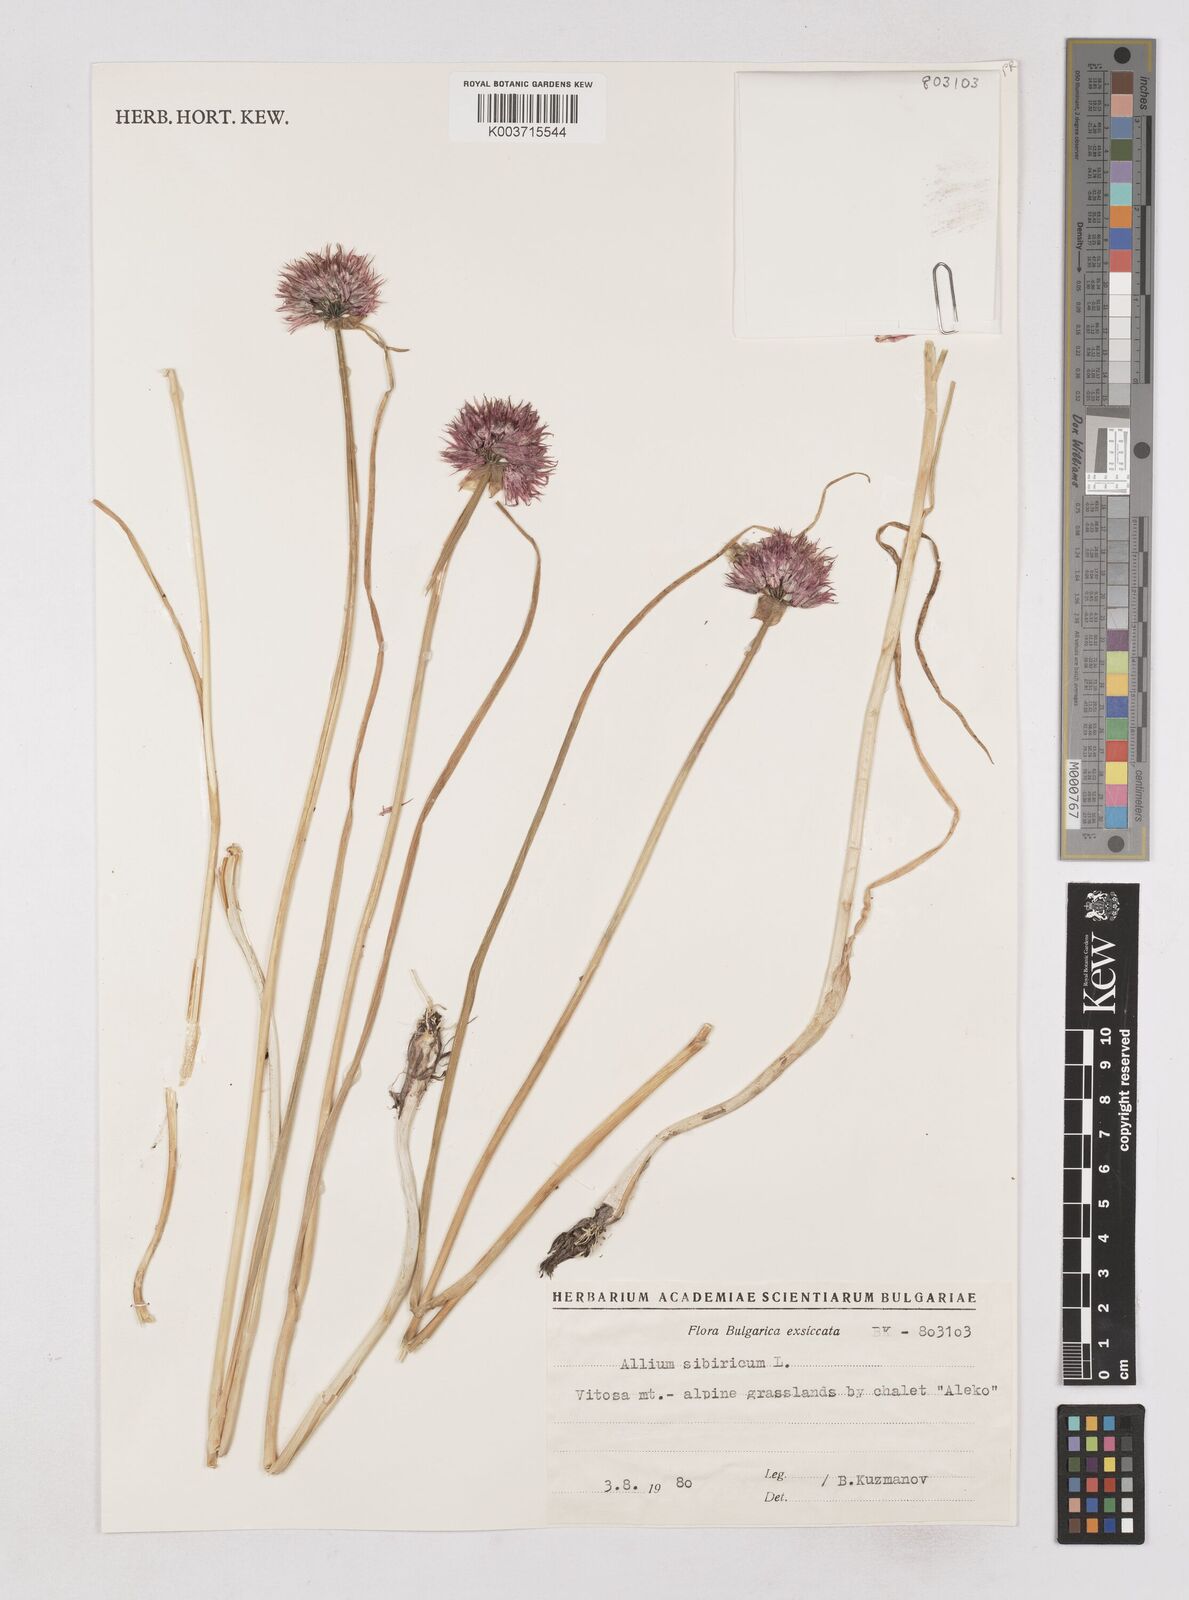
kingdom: Plantae
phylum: Tracheophyta
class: Liliopsida
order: Asparagales
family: Amaryllidaceae
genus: Allium
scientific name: Allium schoenoprasum
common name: Chives
